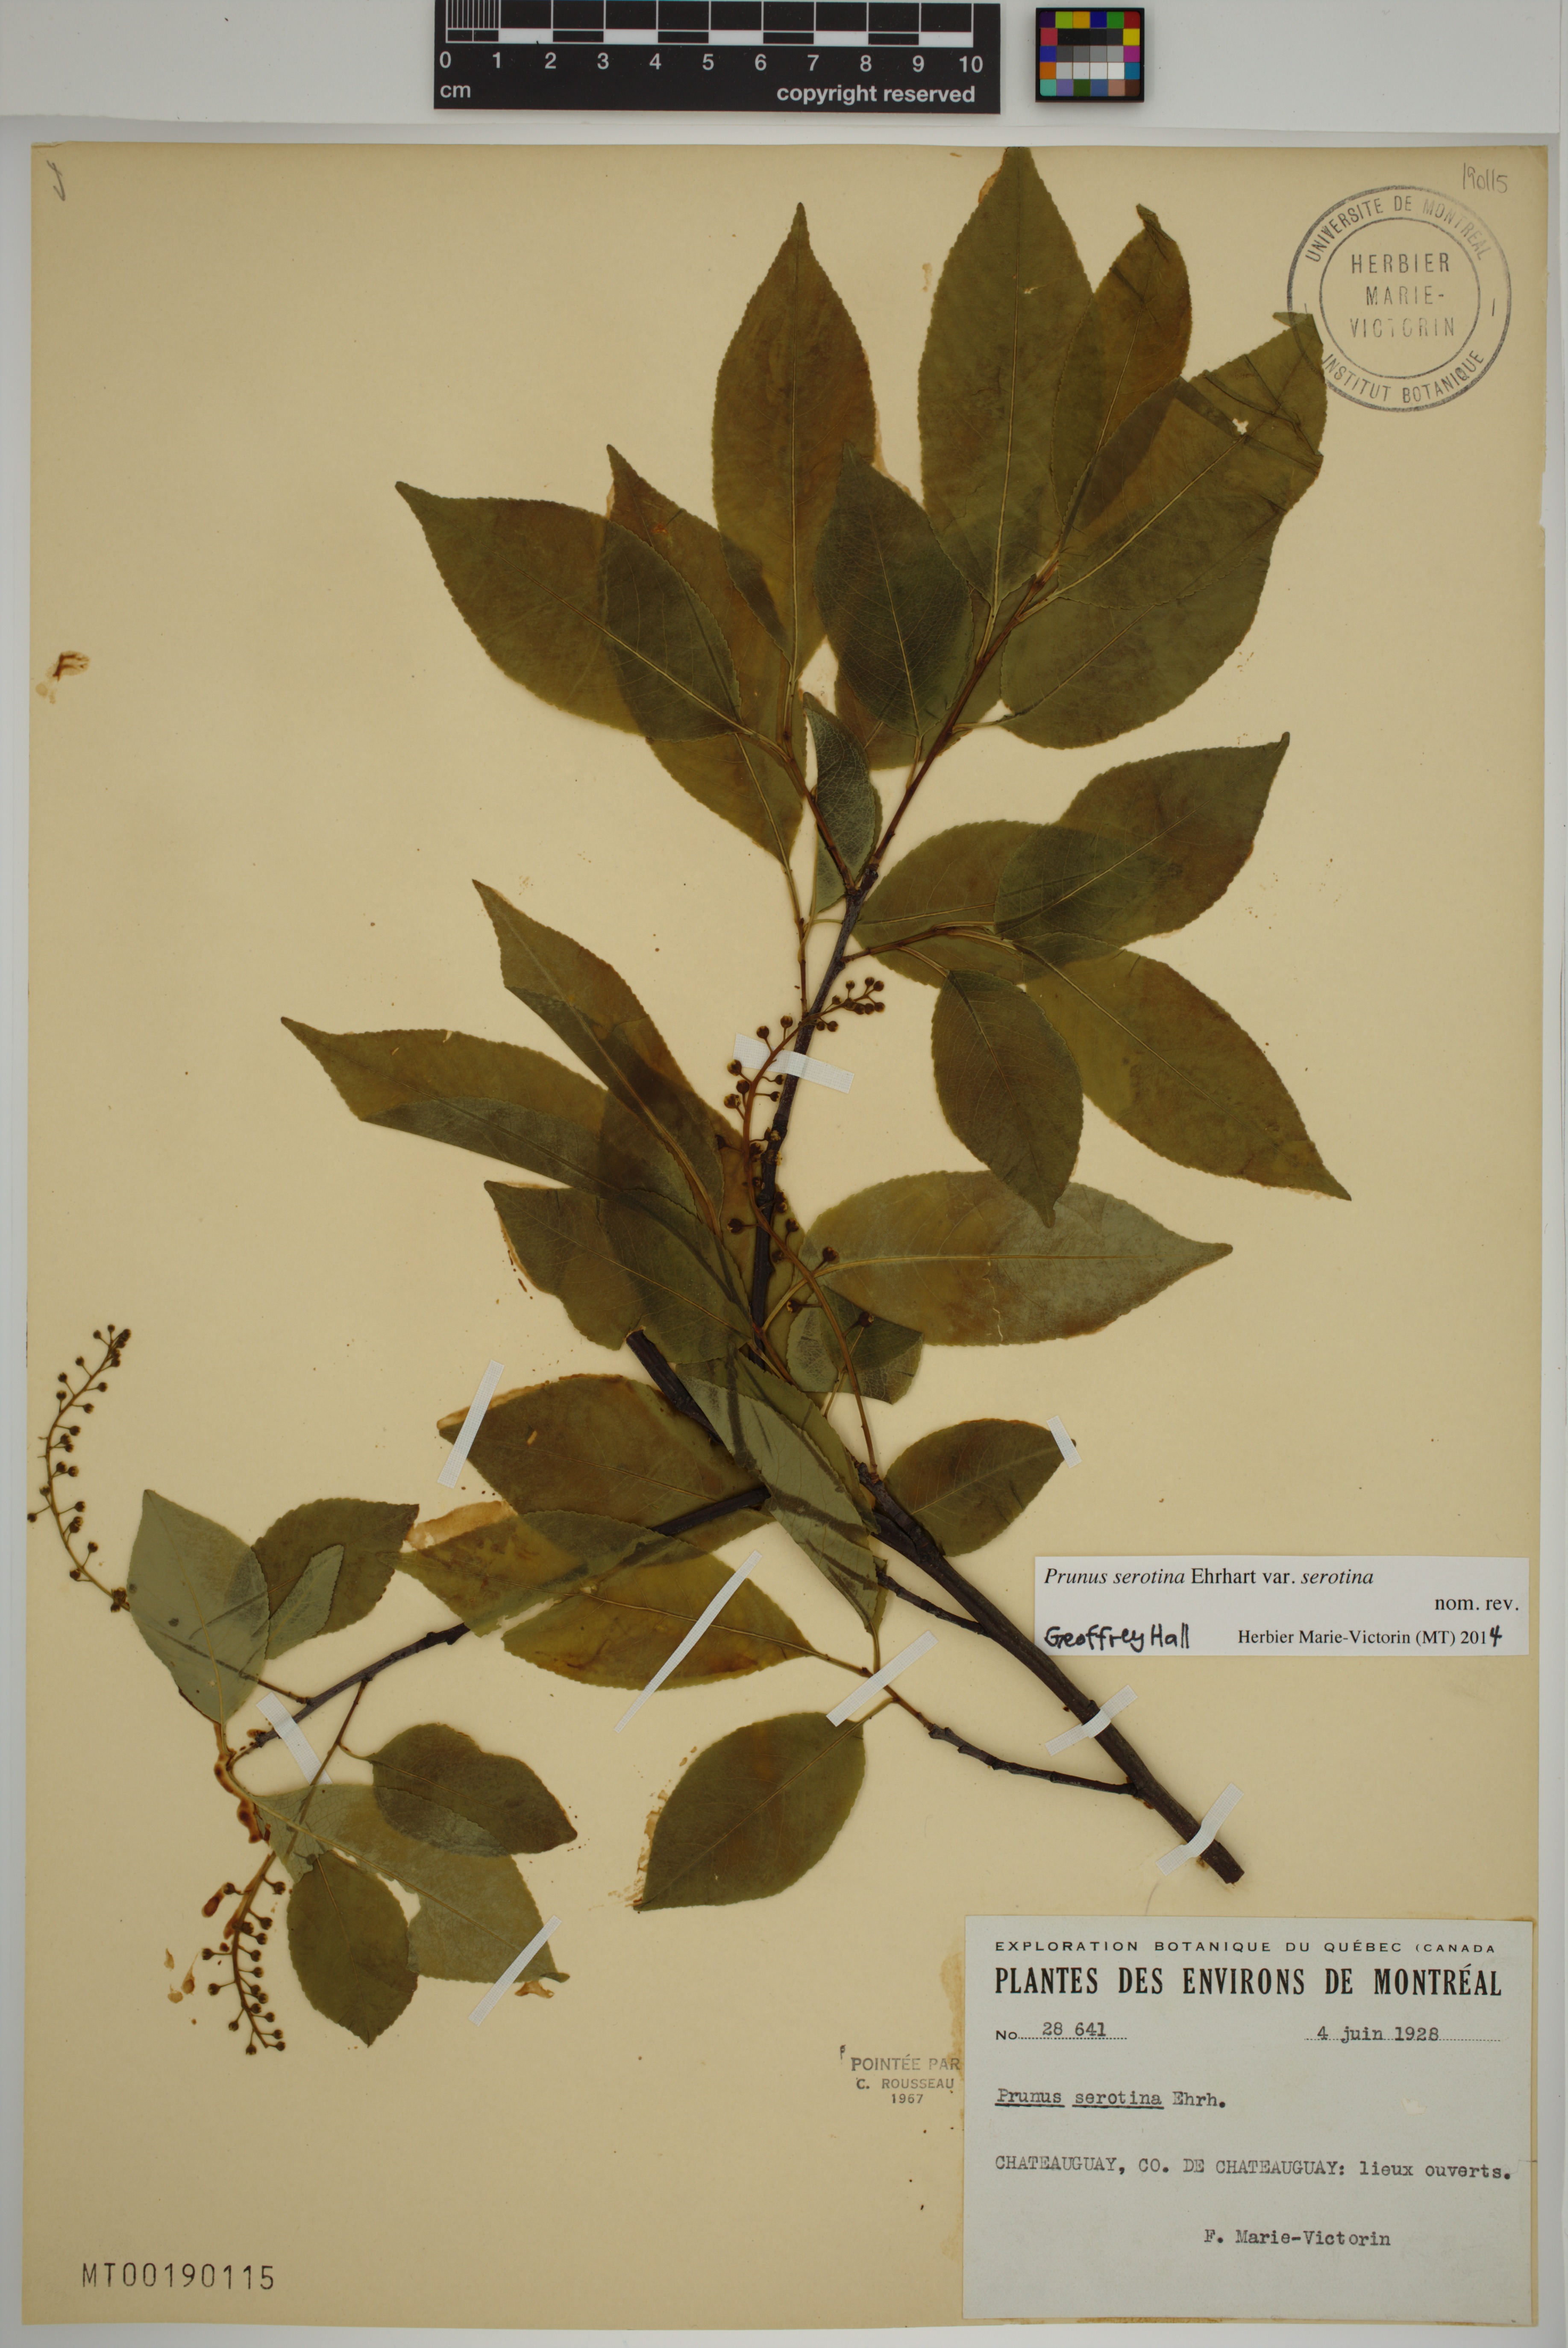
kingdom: Plantae
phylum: Tracheophyta
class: Magnoliopsida
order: Rosales
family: Rosaceae
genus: Prunus
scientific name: Prunus serotina
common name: Black cherry
